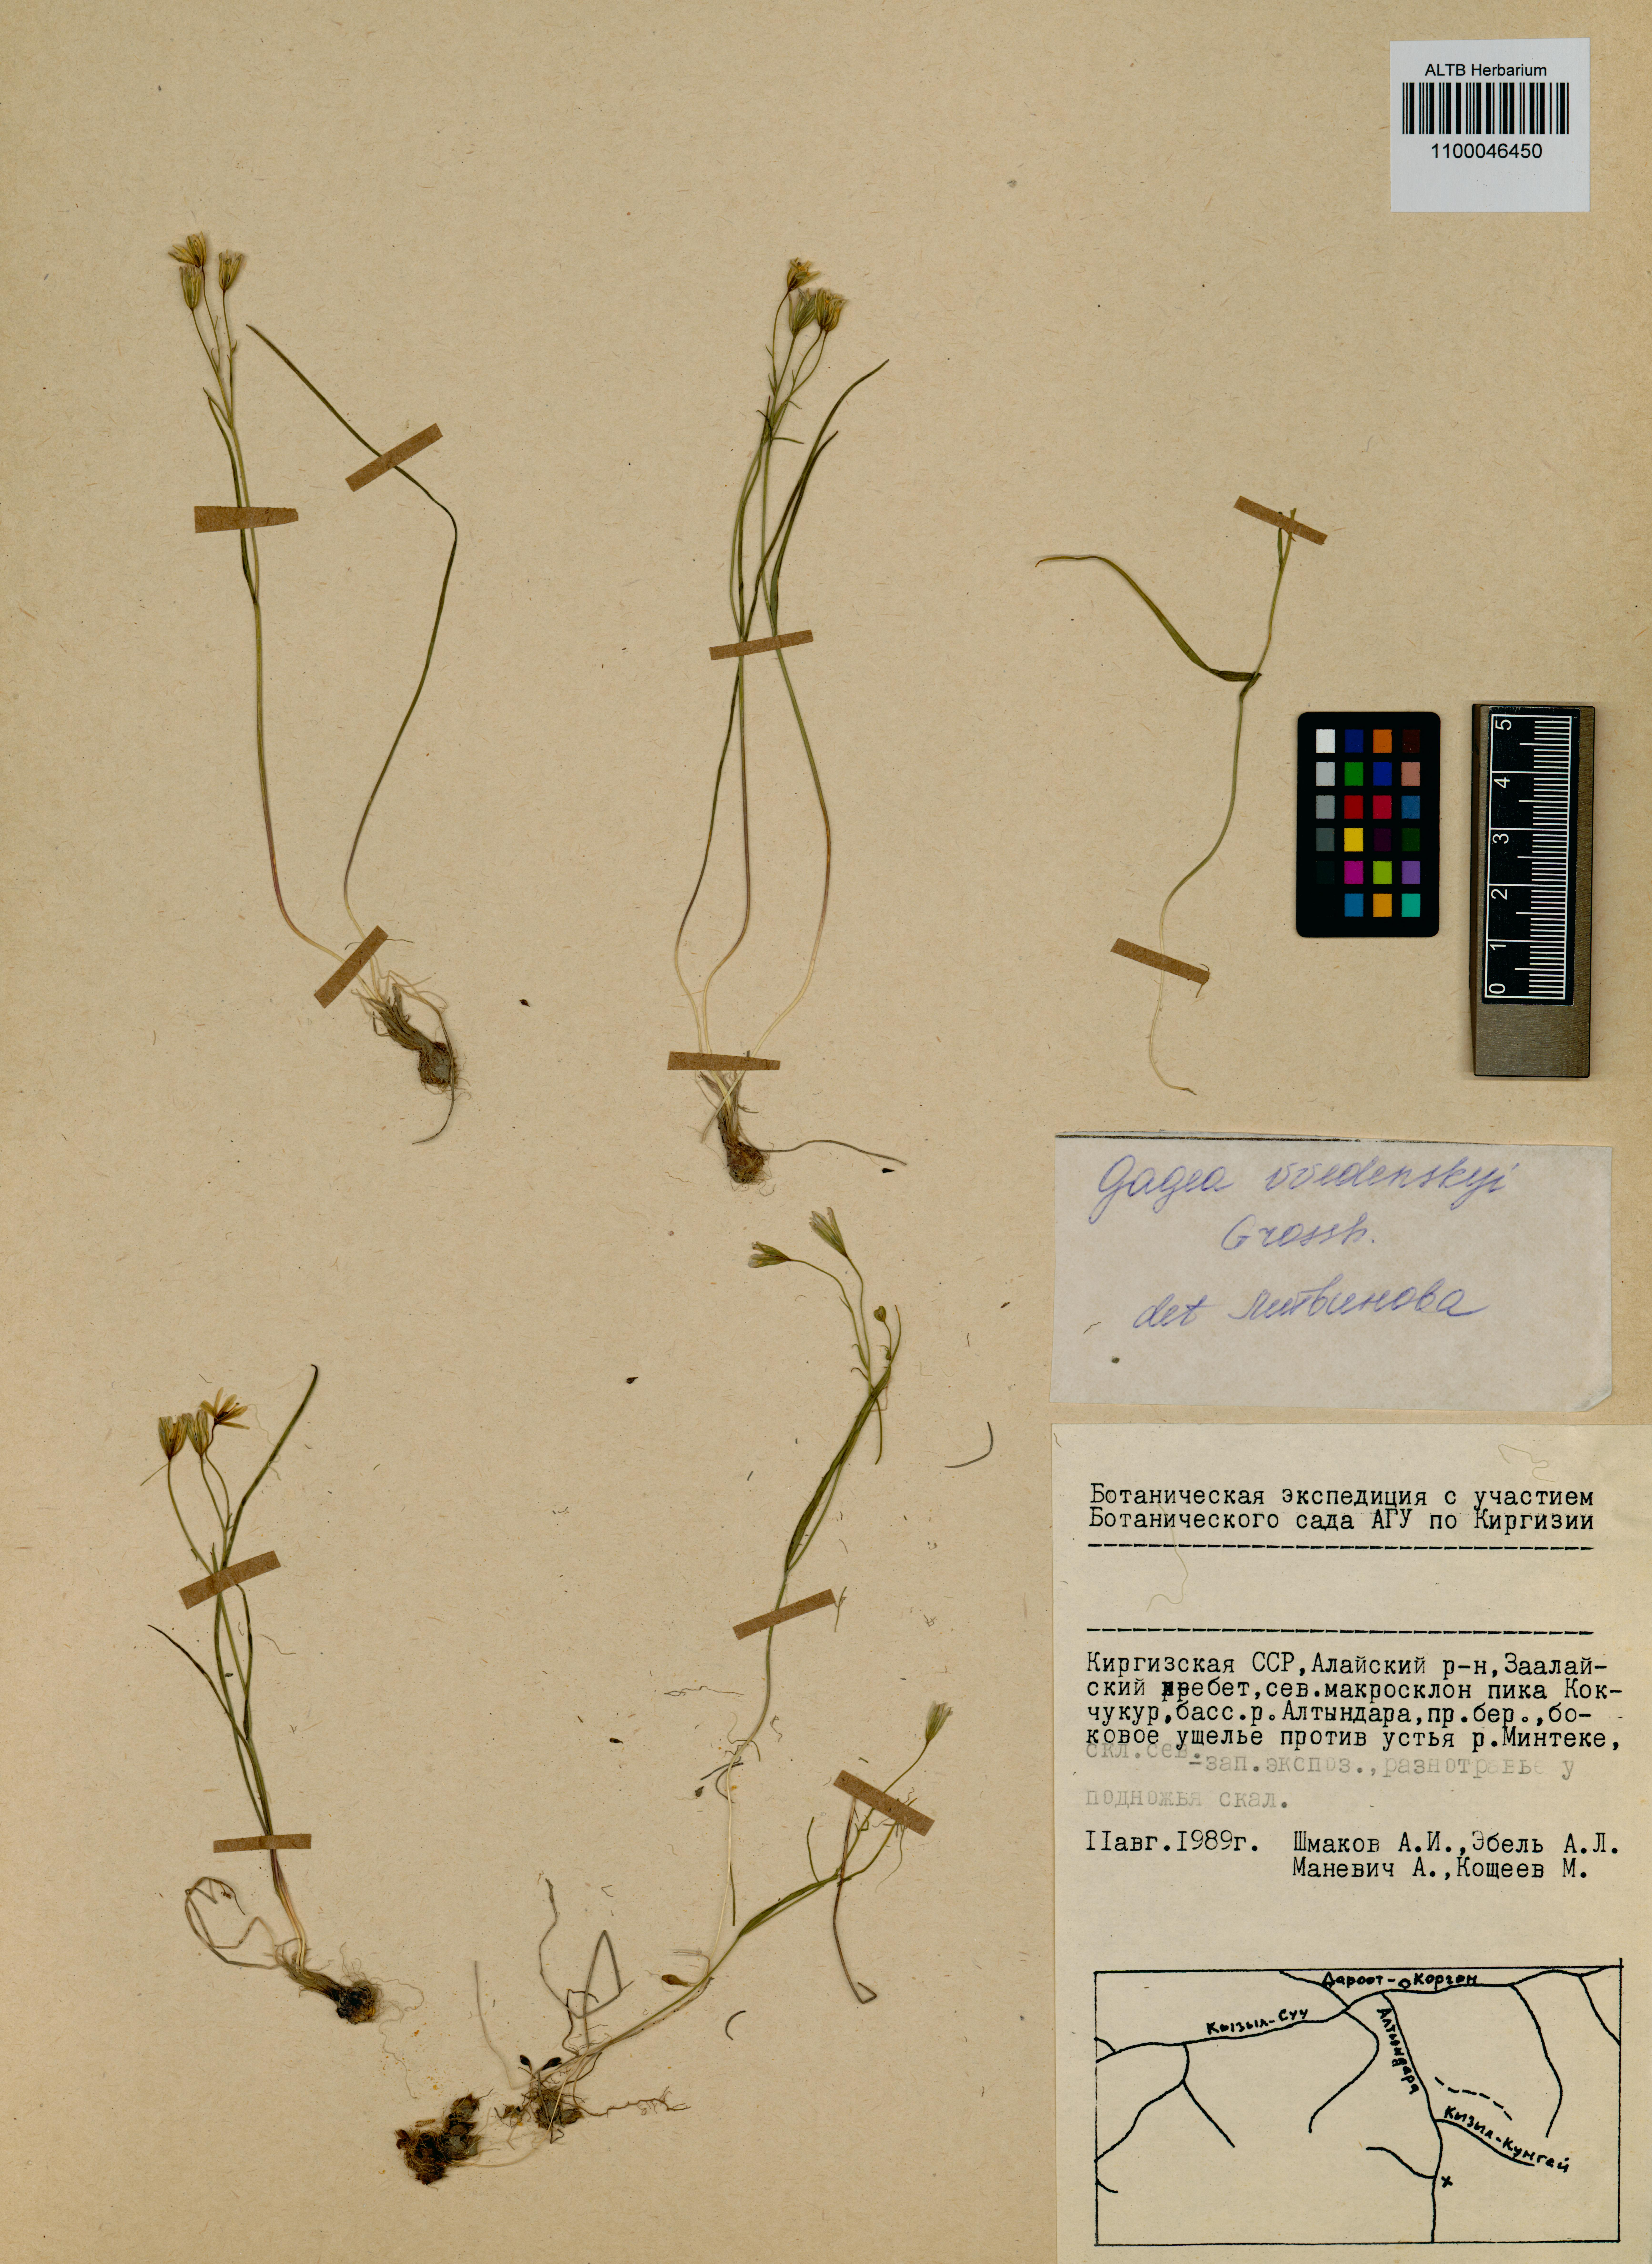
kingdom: Plantae
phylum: Tracheophyta
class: Liliopsida
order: Liliales
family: Liliaceae
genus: Gagea
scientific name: Gagea vvedenskyi
